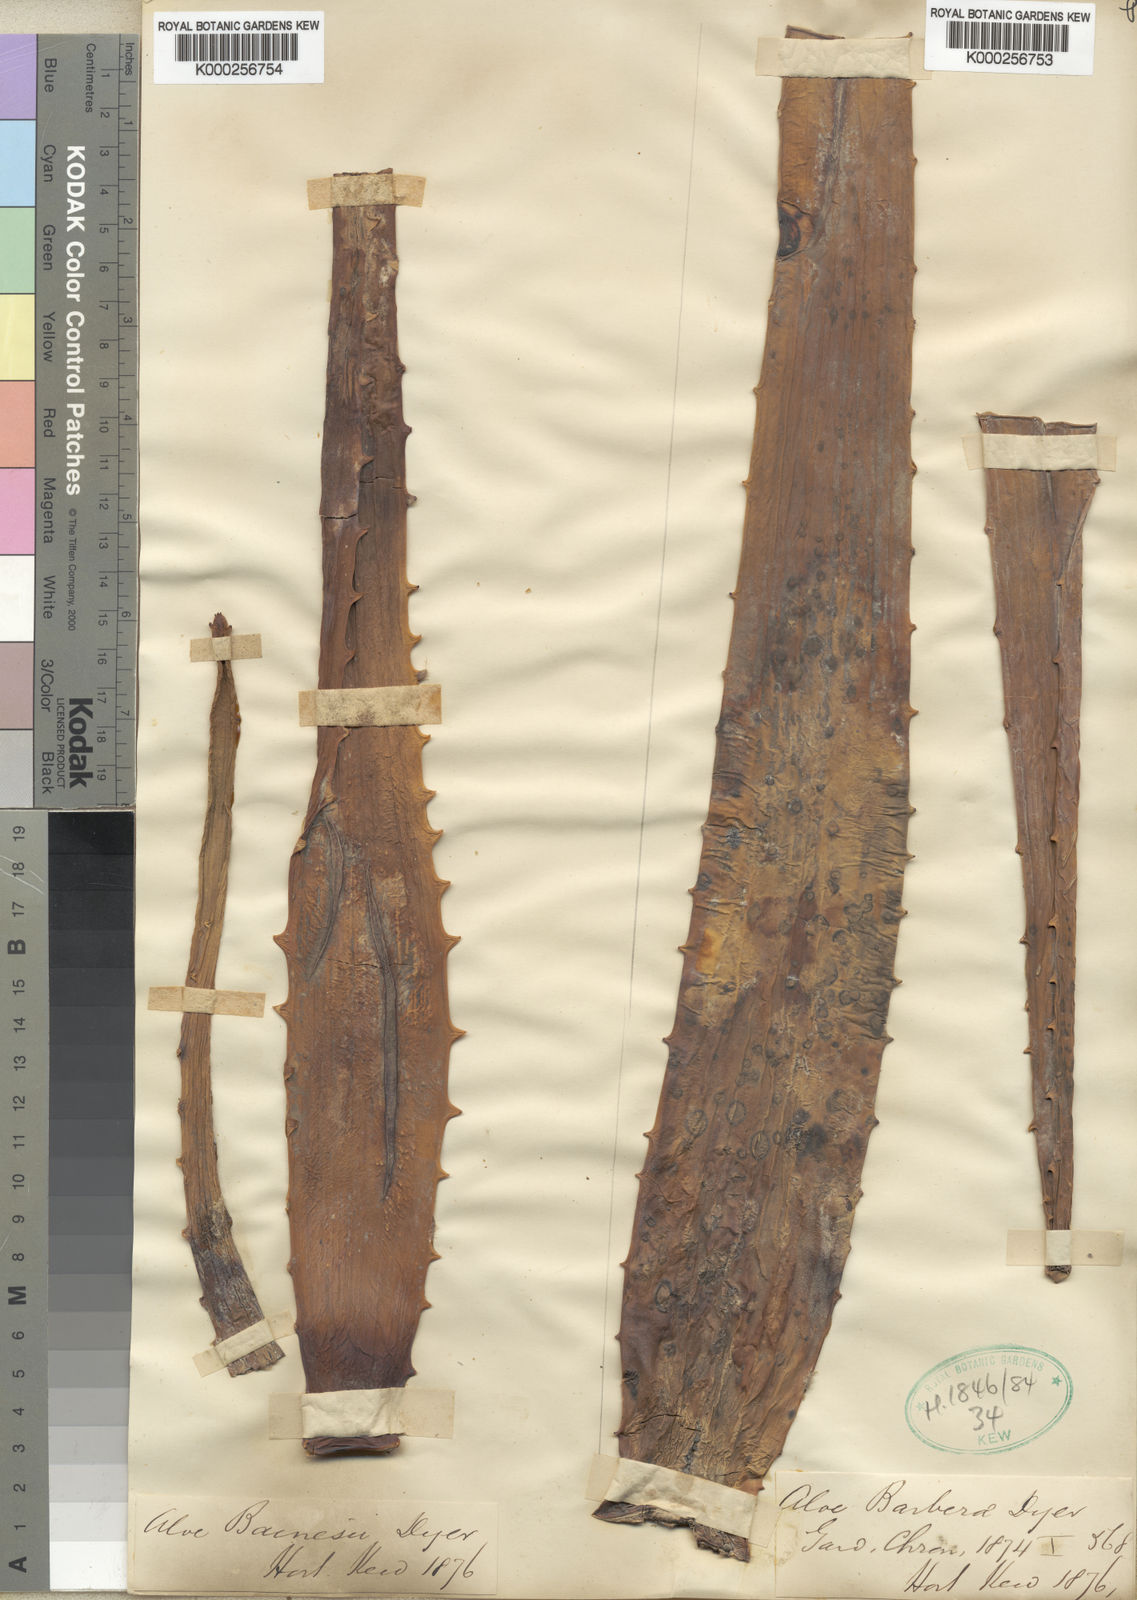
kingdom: Plantae
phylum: Tracheophyta
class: Liliopsida
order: Asparagales
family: Asphodelaceae
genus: Aloidendron
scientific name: Aloidendron barberae
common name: Tree aloe
